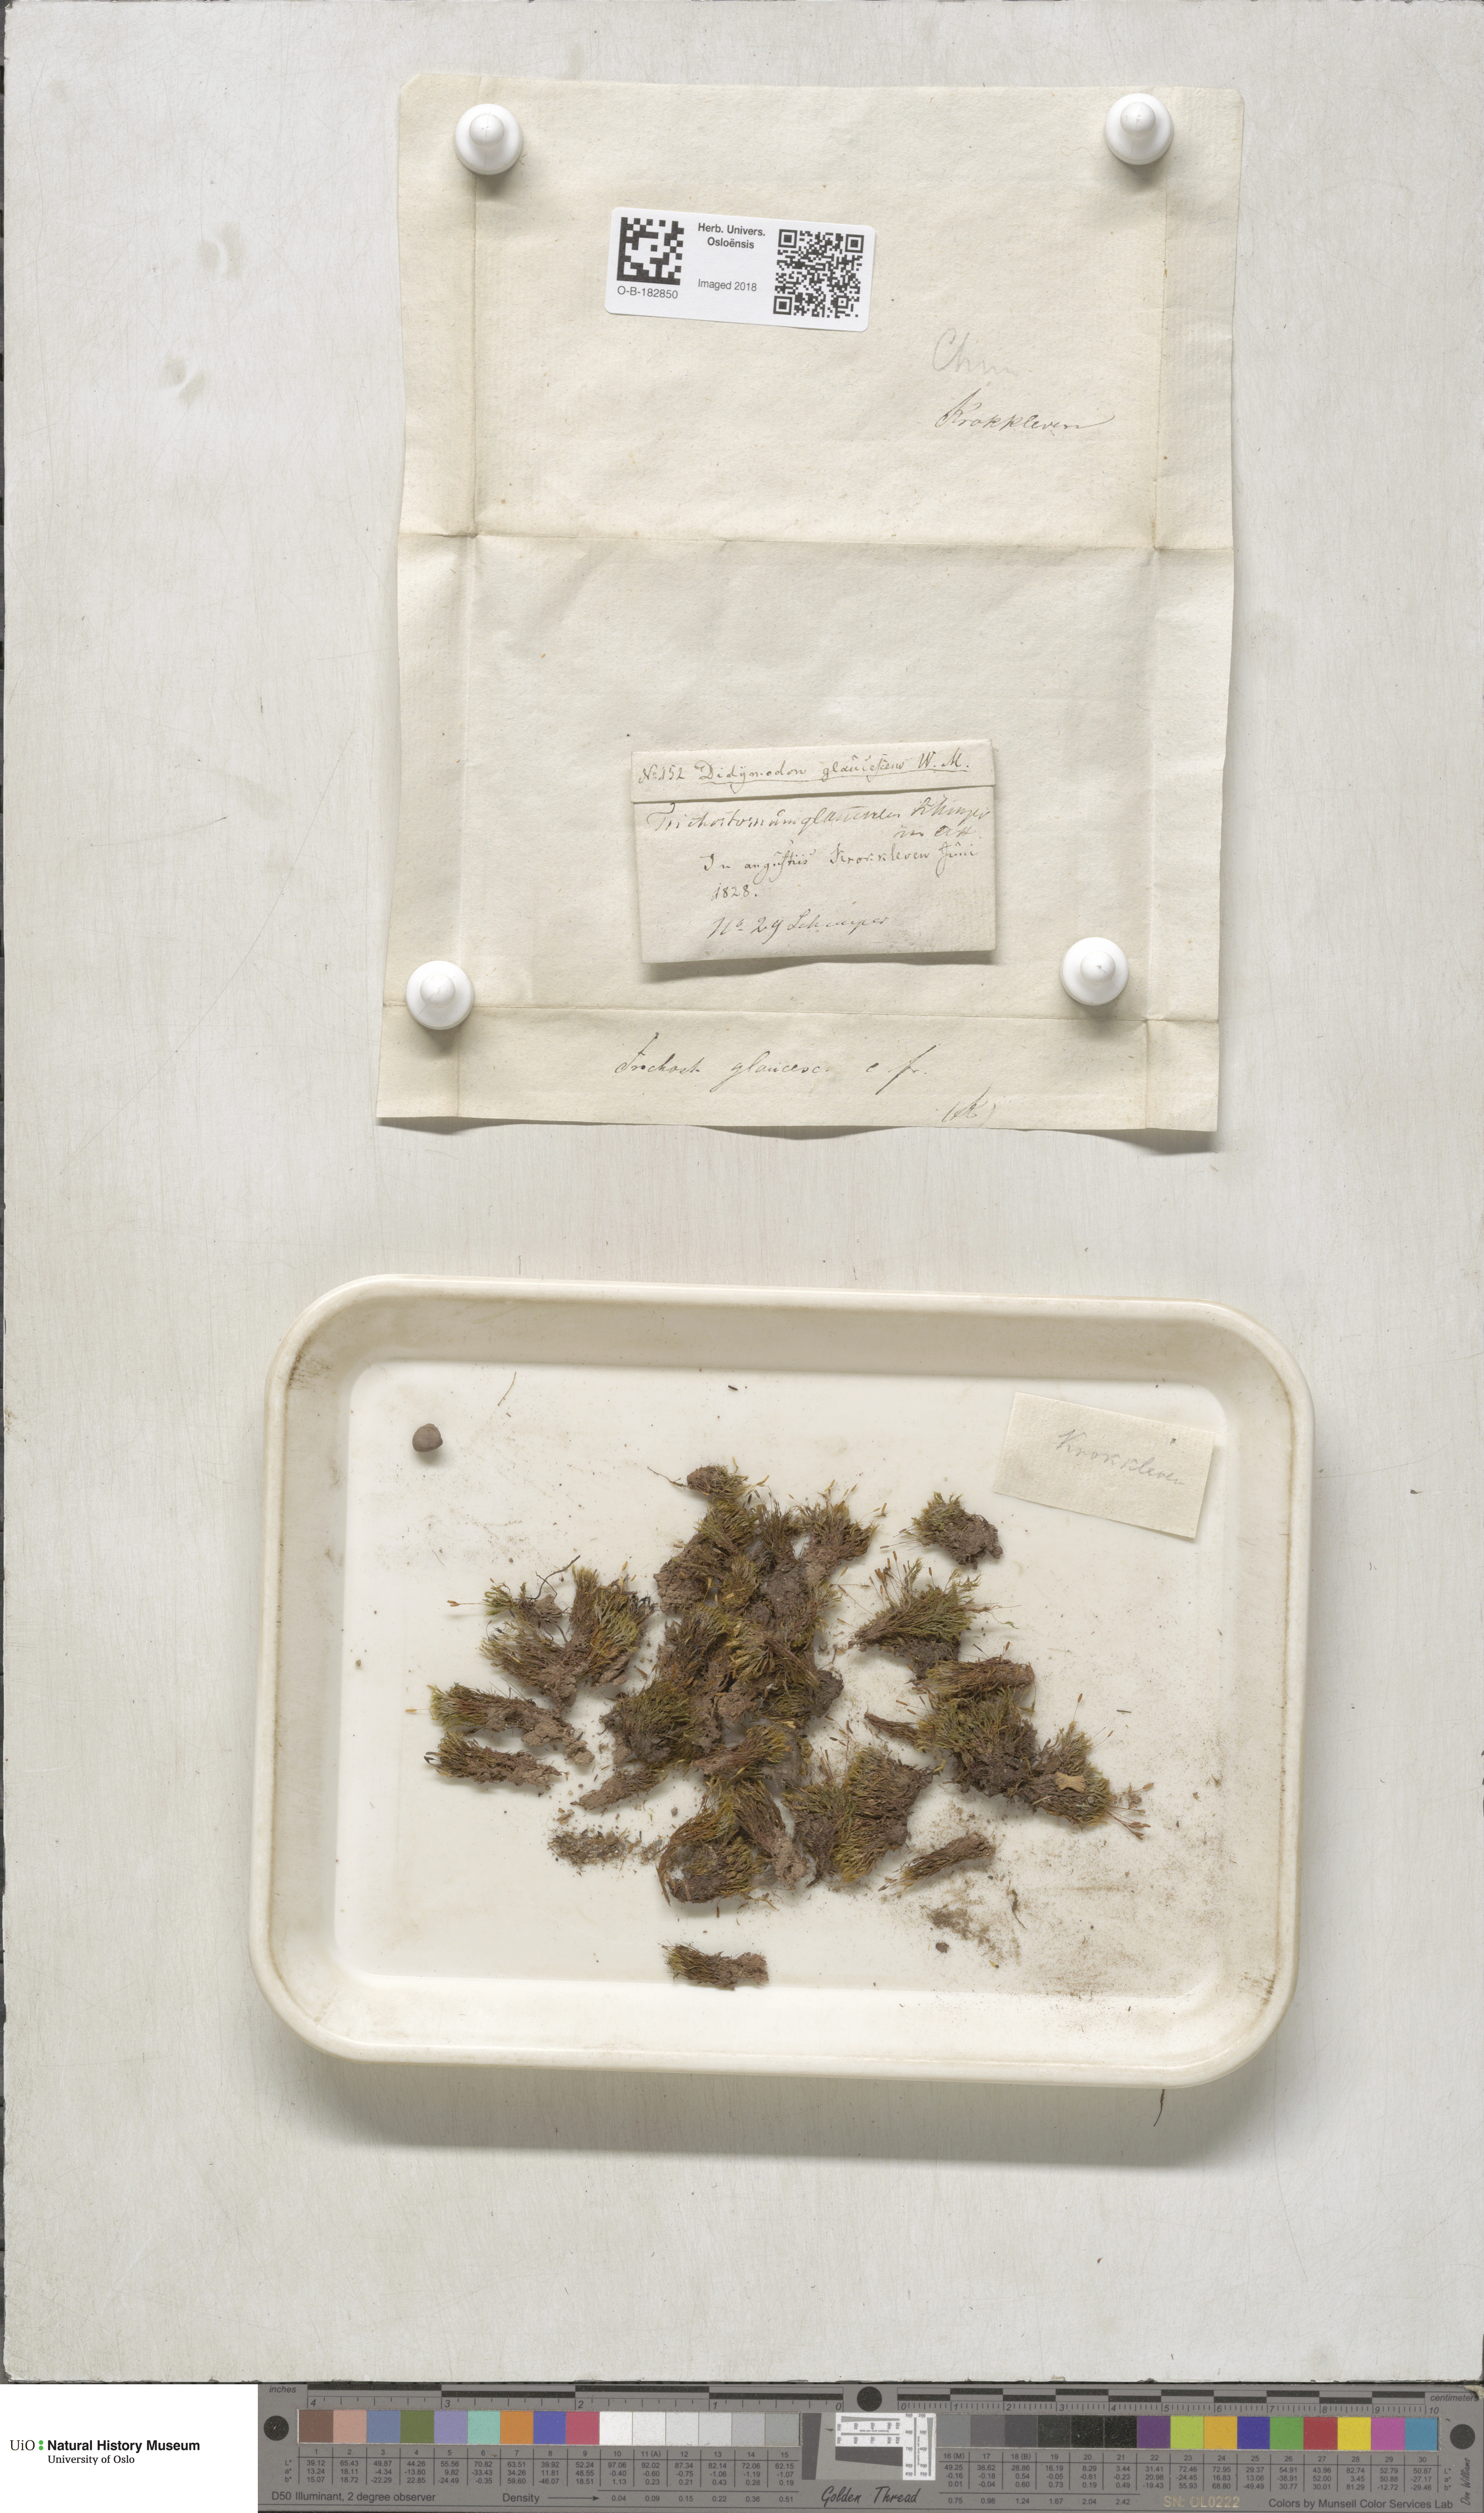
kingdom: Plantae
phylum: Bryophyta
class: Bryopsida
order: Grimmiales
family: Saelaniaceae
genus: Saelania
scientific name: Saelania glaucescens
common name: Blue dew-moss
